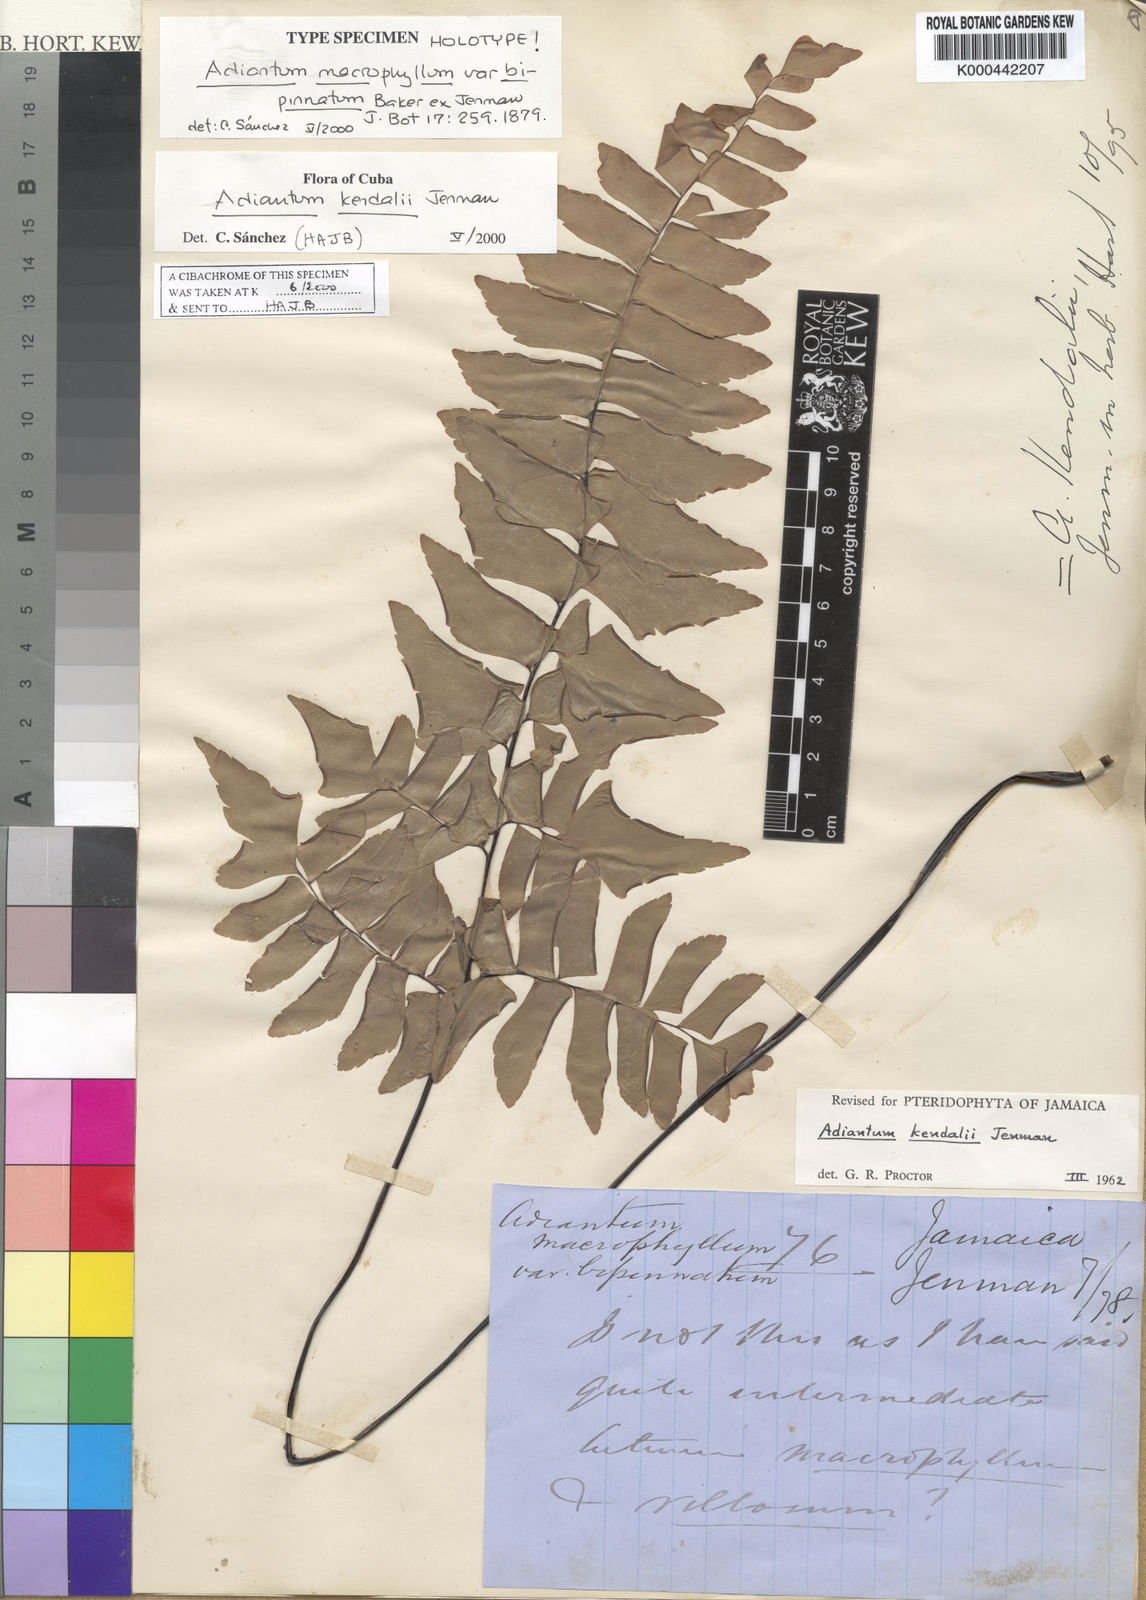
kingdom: Plantae
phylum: Tracheophyta
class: Polypodiopsida
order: Polypodiales
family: Pteridaceae
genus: Adiantum
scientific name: Adiantum kendalii
